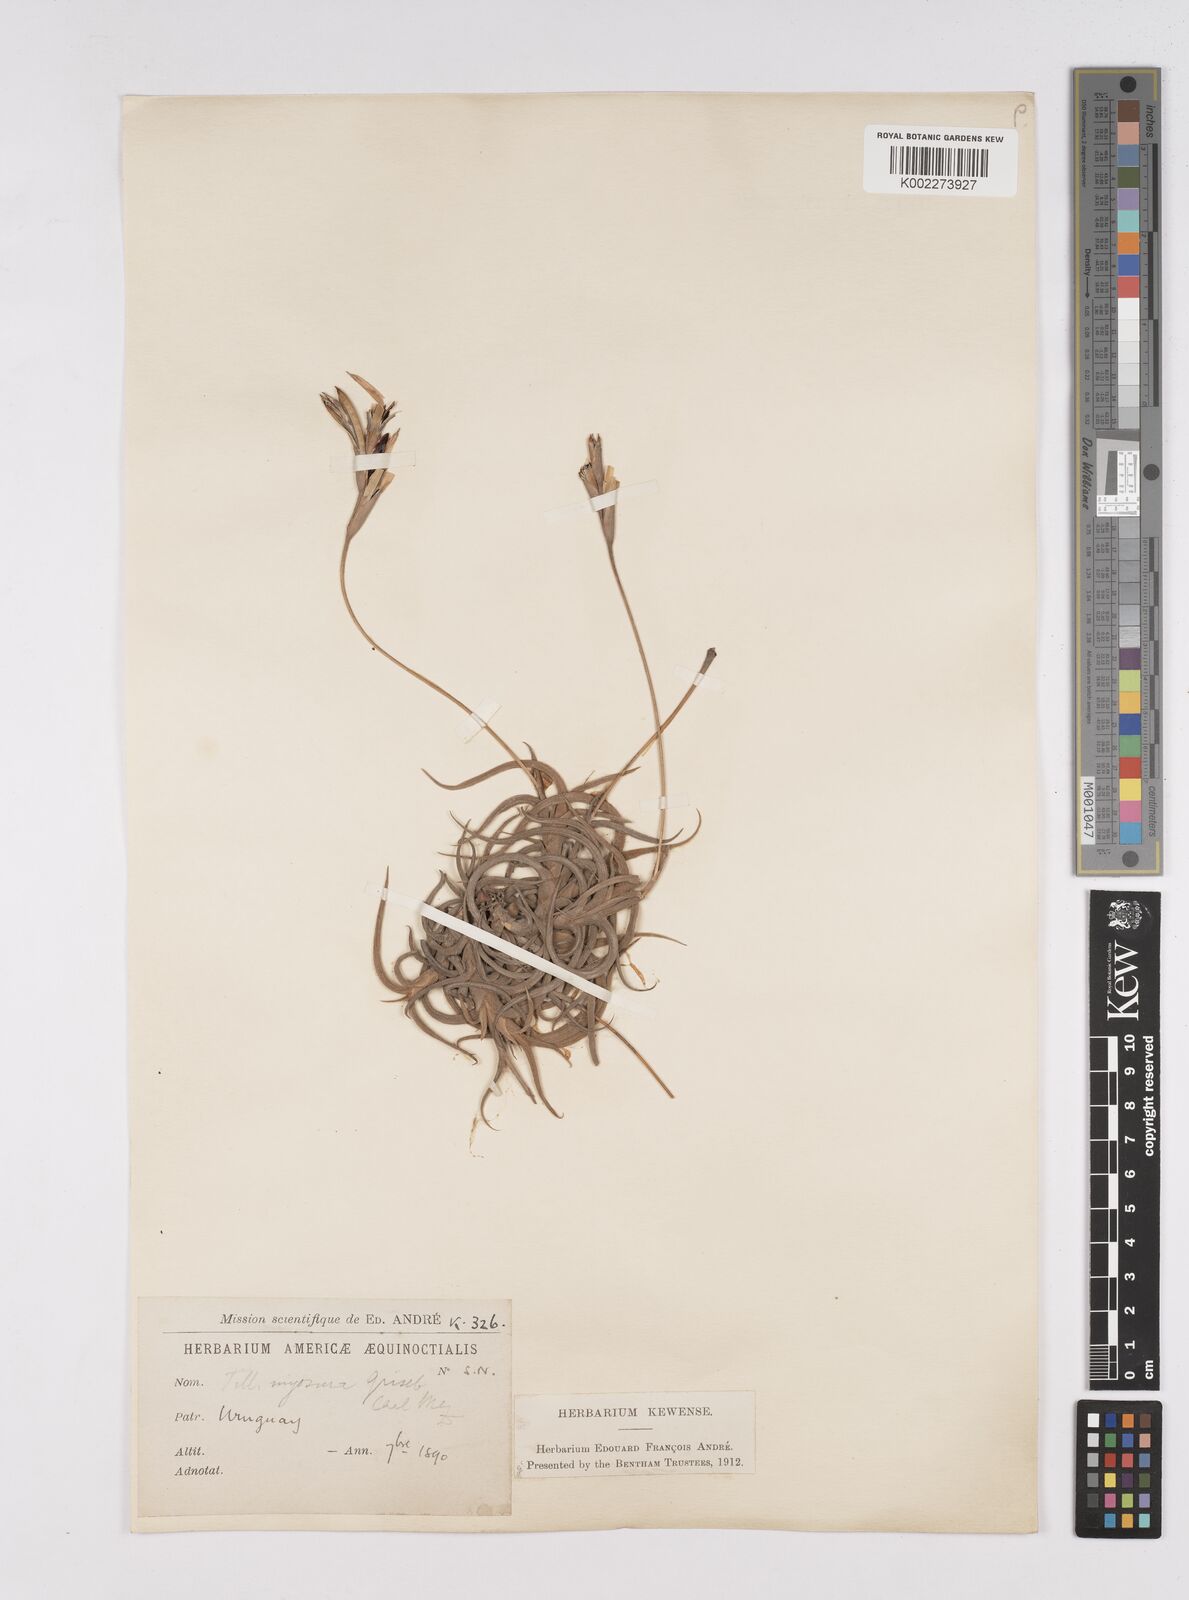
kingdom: Plantae
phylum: Tracheophyta
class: Liliopsida
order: Poales
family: Bromeliaceae
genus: Tillandsia
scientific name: Tillandsia myosura
